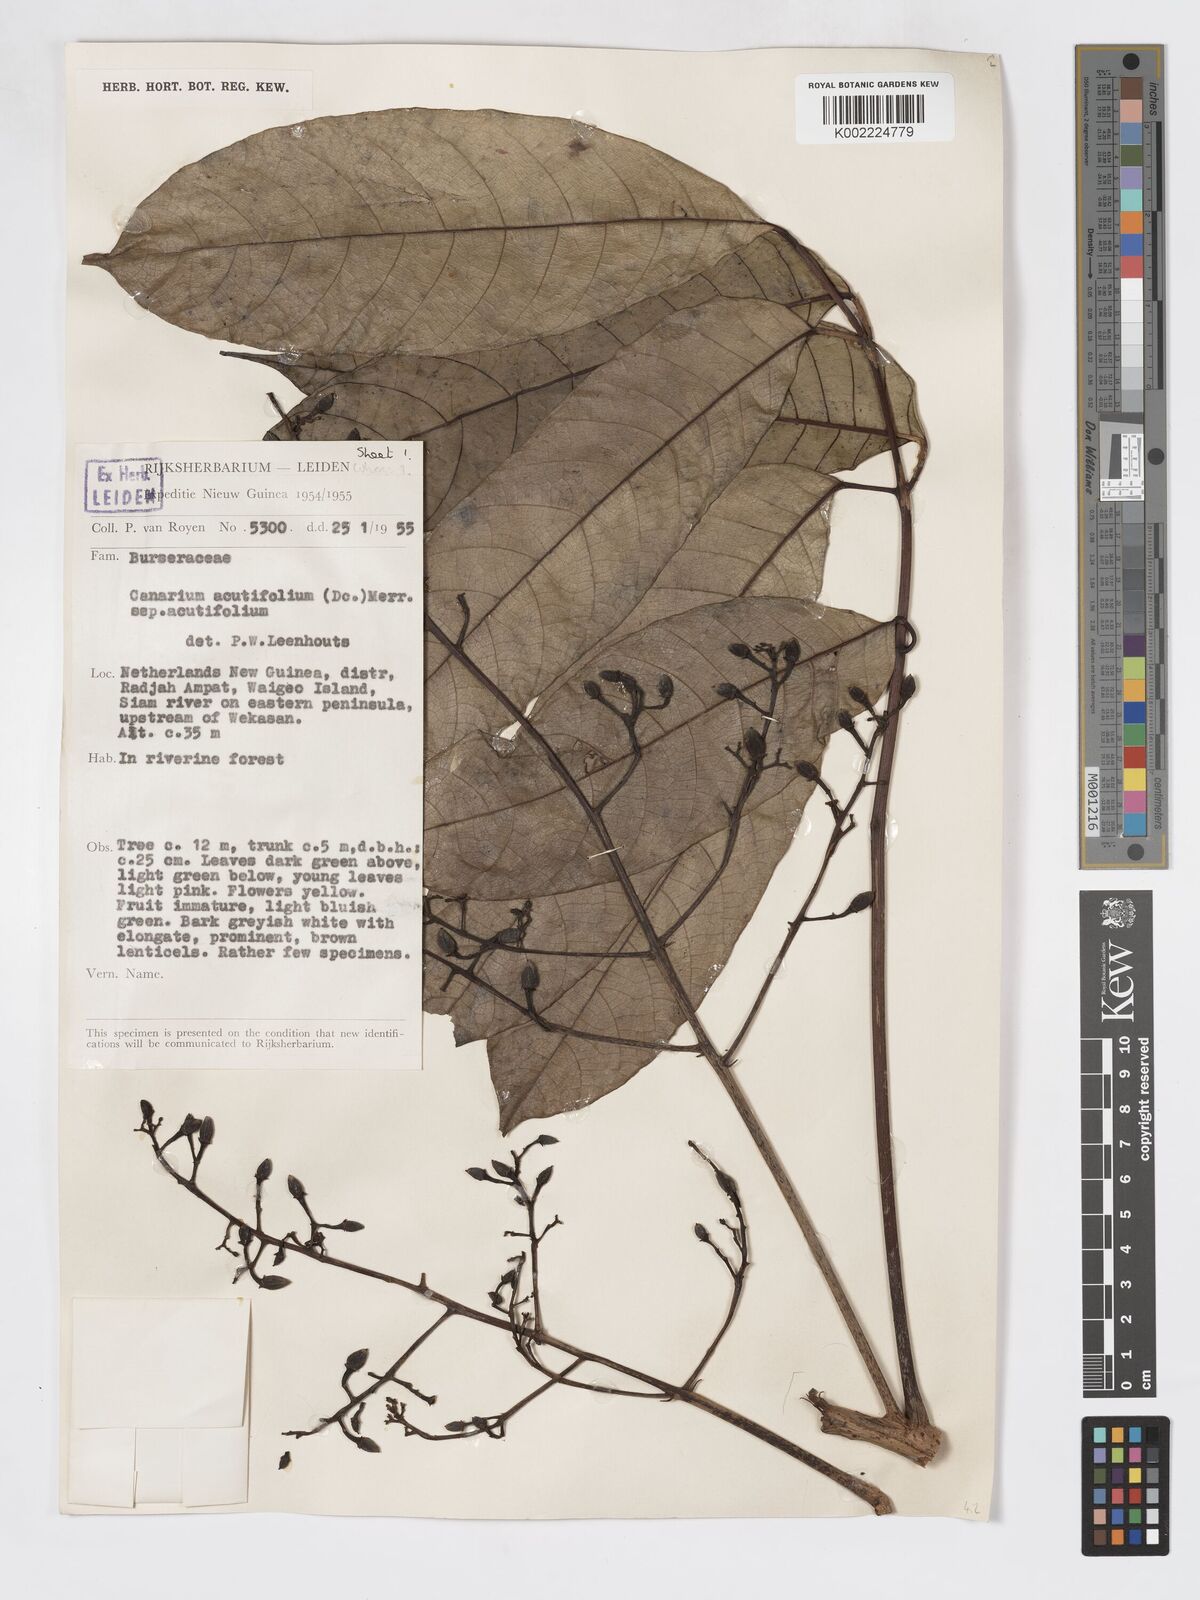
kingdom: Plantae
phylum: Tracheophyta
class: Magnoliopsida
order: Sapindales
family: Burseraceae
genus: Canarium
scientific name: Canarium acutifolium
